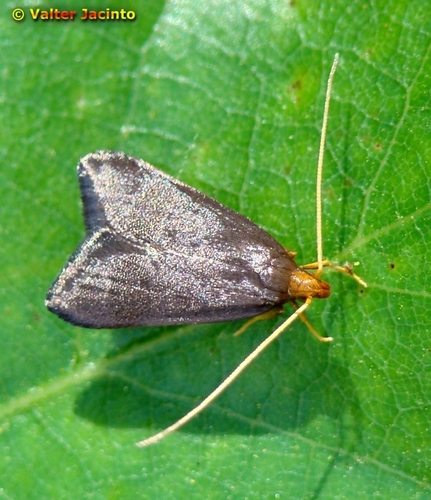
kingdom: Animalia
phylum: Arthropoda
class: Insecta
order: Lepidoptera
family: Lecithoceridae
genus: Eurodachtha
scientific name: Eurodachtha pallicornella
